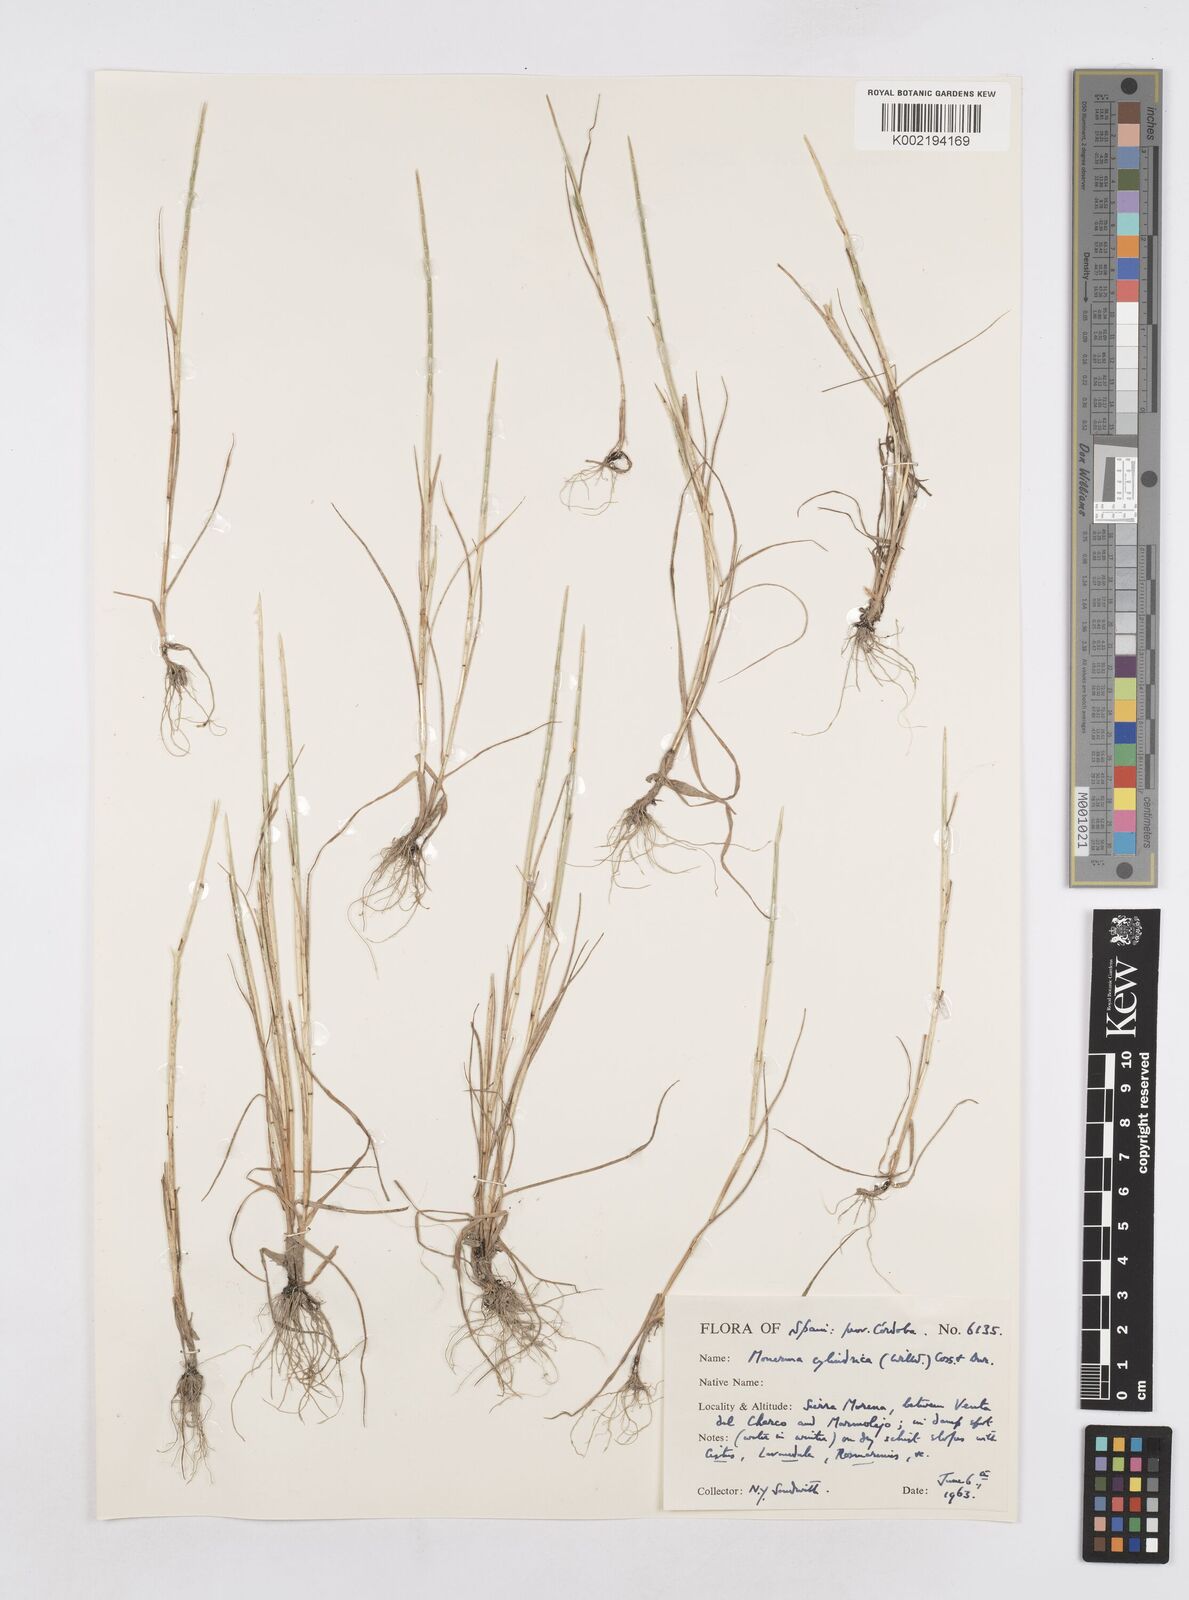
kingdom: Plantae
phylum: Tracheophyta
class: Liliopsida
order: Poales
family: Poaceae
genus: Parapholis
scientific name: Parapholis cylindrica
